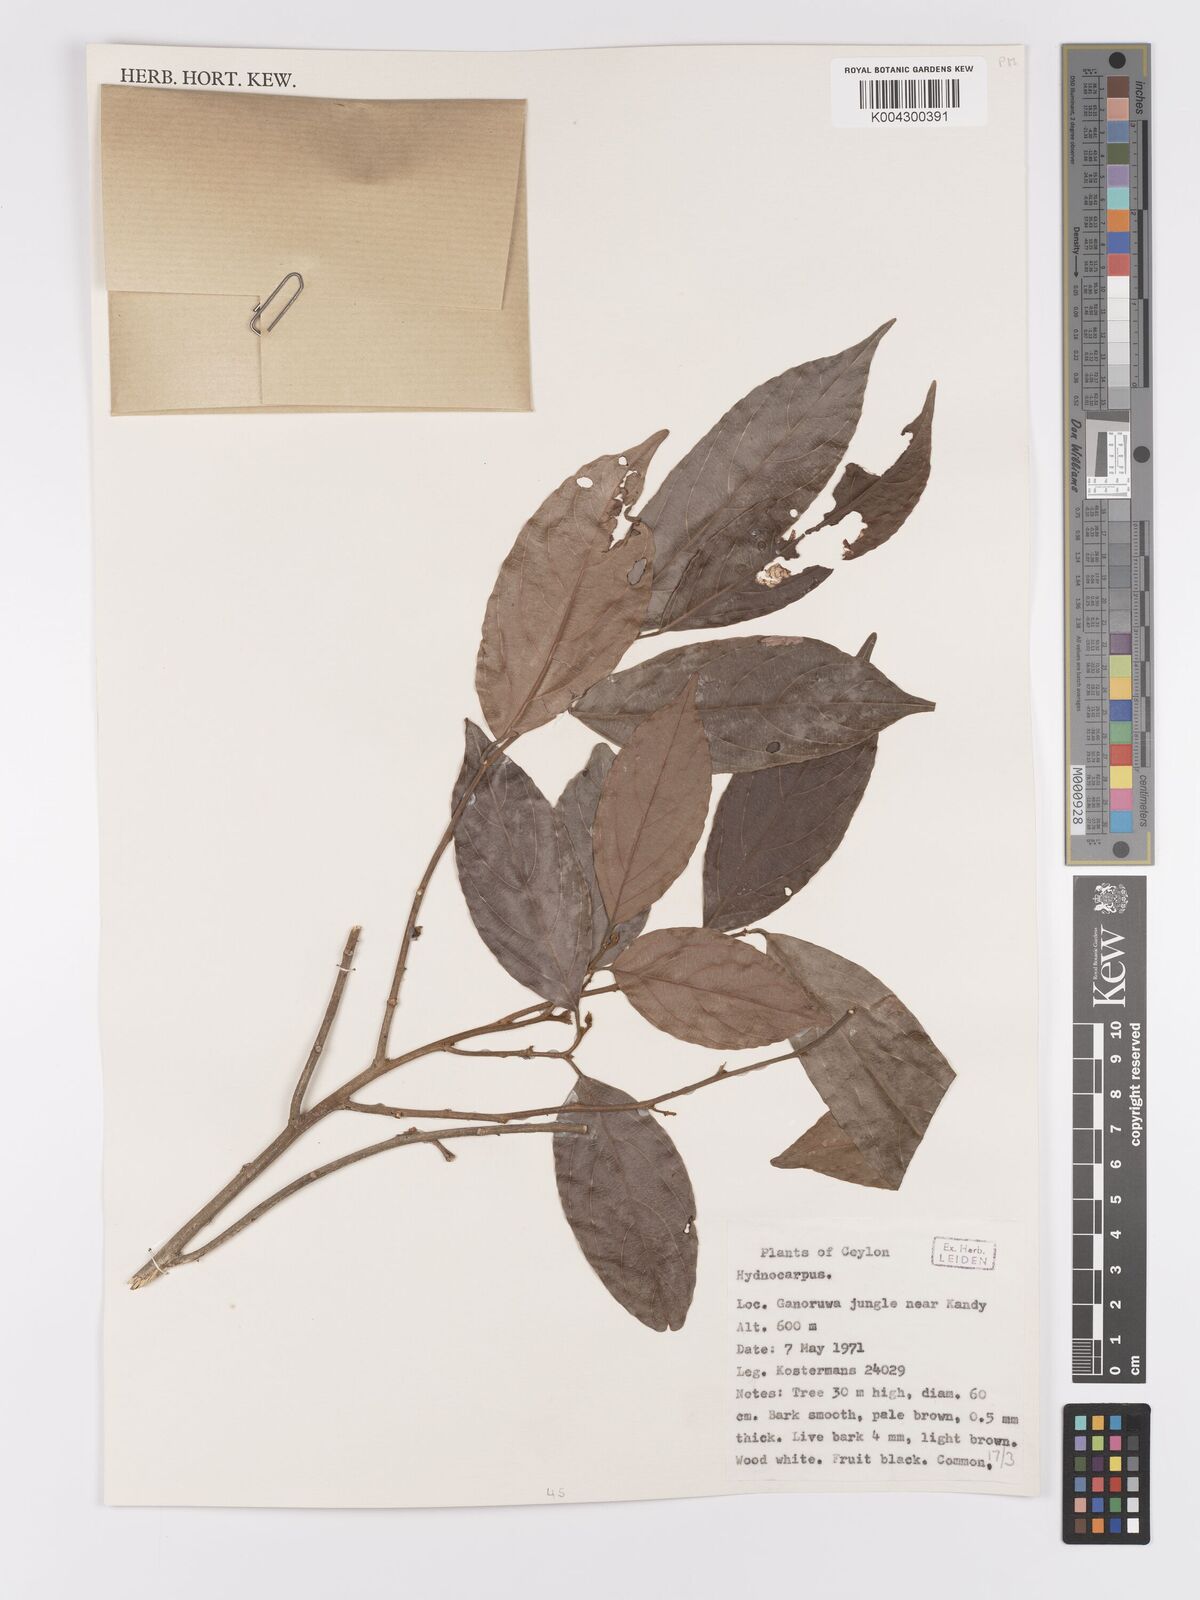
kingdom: Plantae
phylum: Tracheophyta
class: Magnoliopsida
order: Malpighiales
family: Achariaceae
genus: Hydnocarpus
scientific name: Hydnocarpus venenatus
